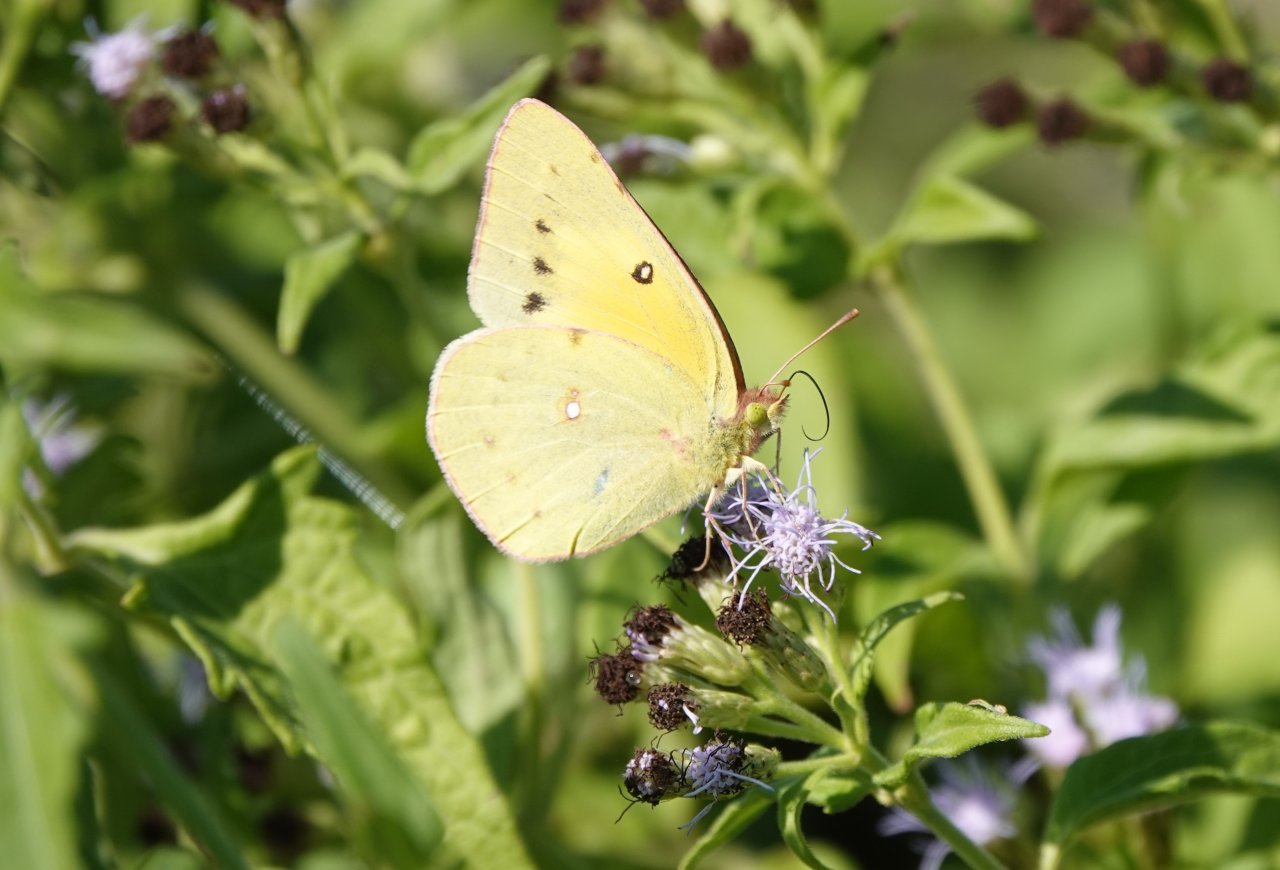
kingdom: Animalia
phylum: Arthropoda
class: Insecta
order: Lepidoptera
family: Pieridae
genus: Colias
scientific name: Colias eurytheme
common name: Orange Sulphur
